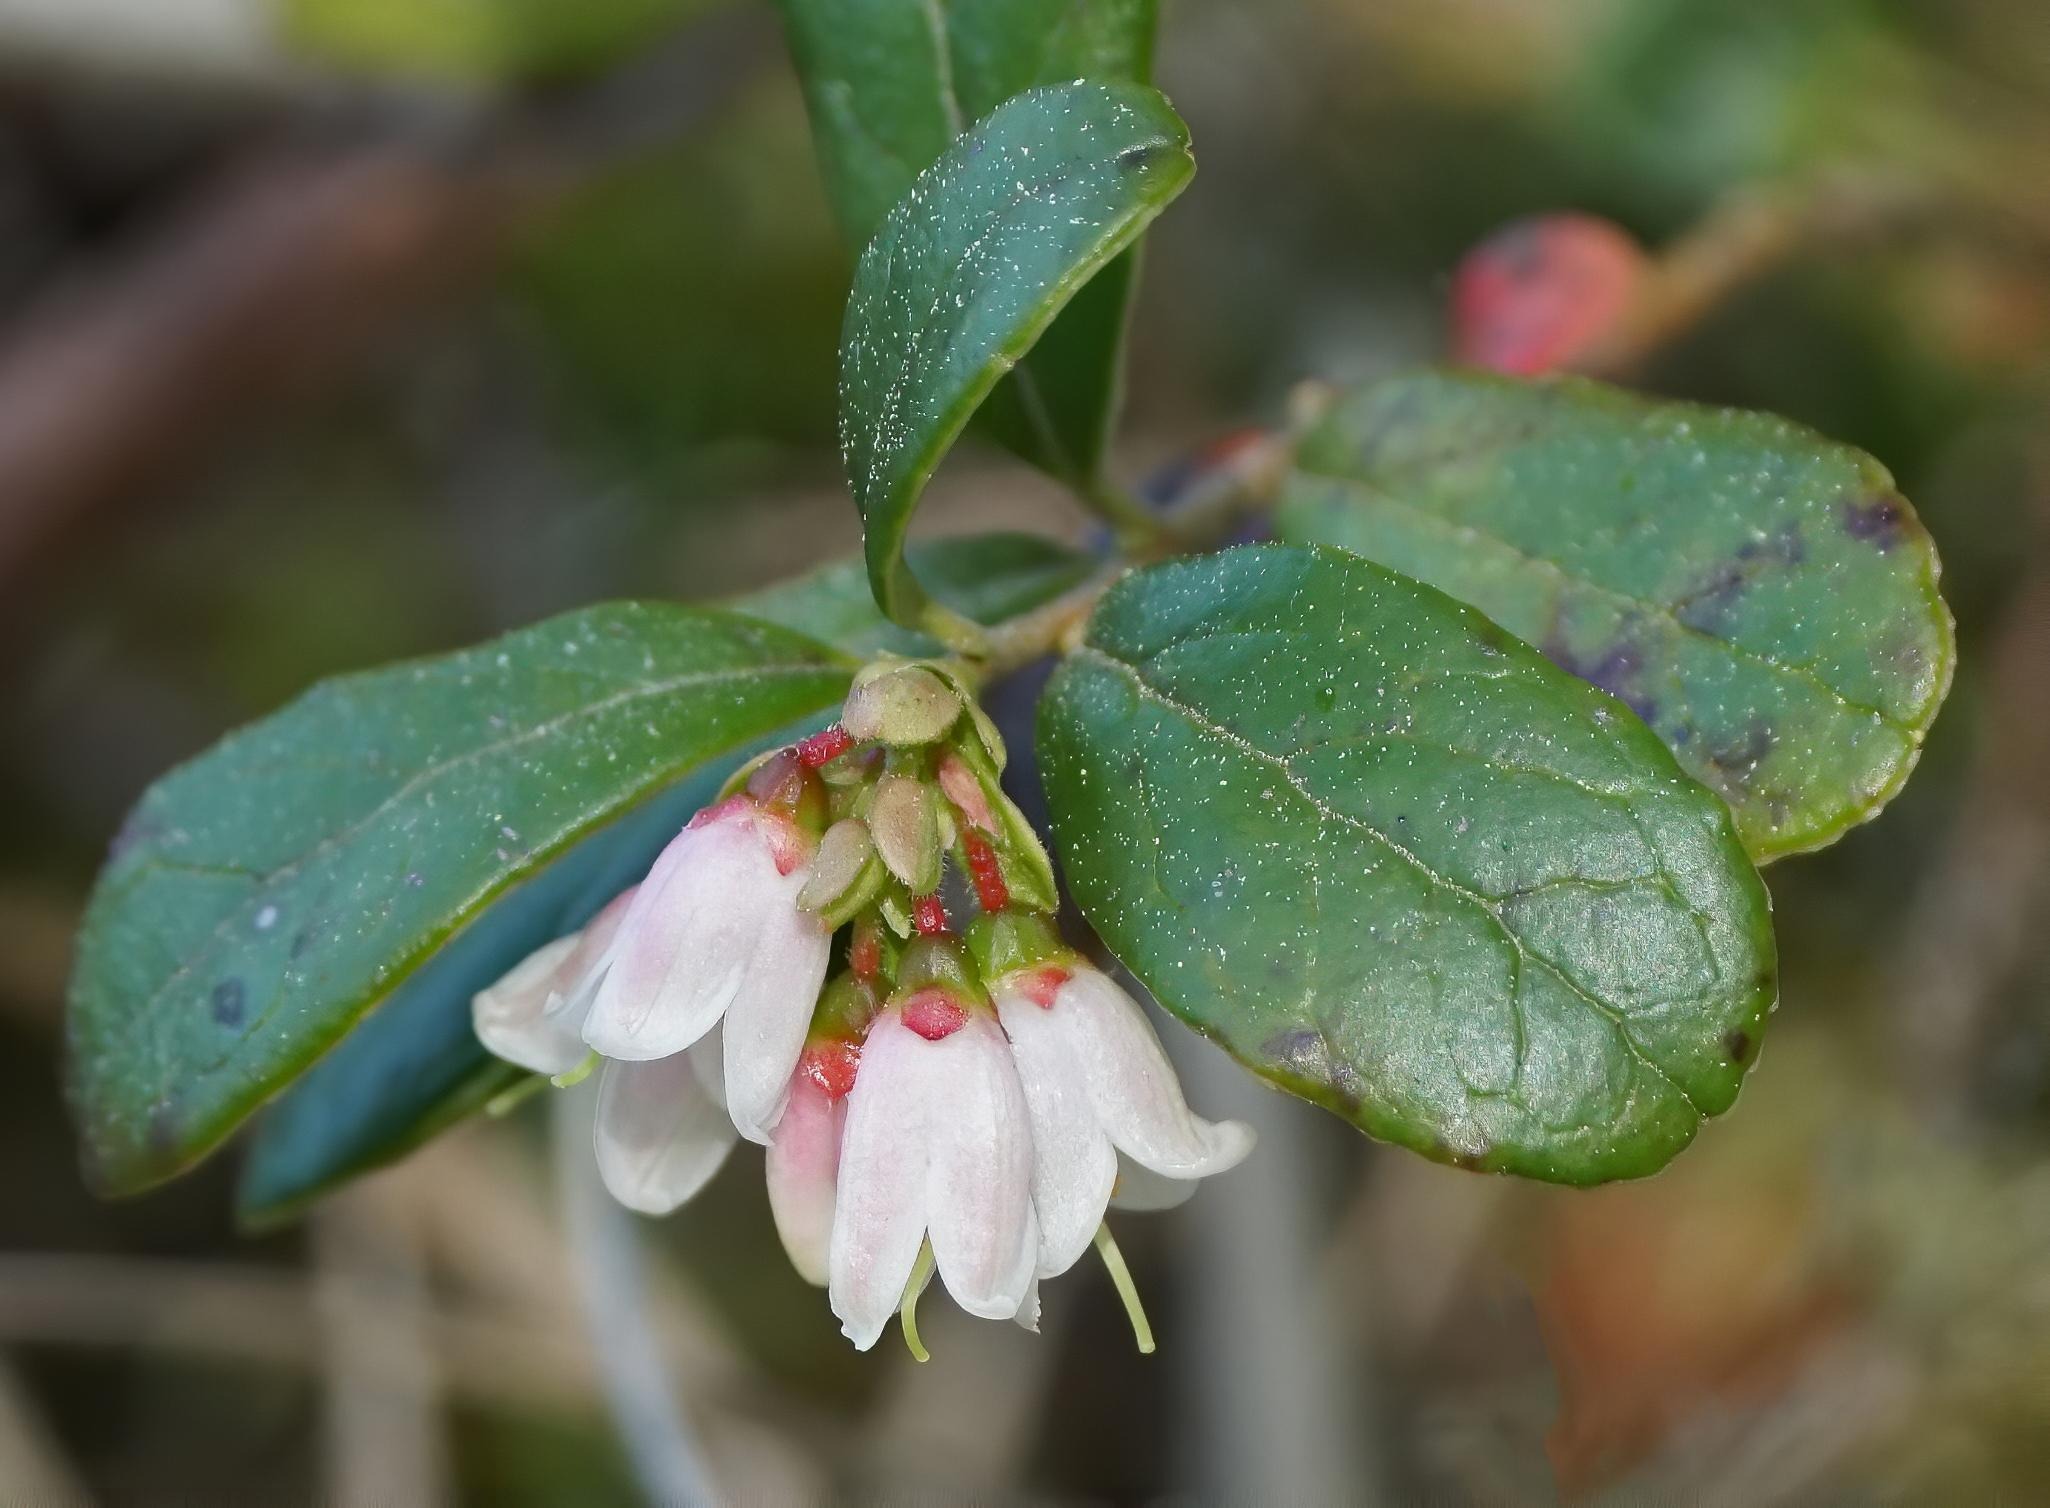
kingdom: Plantae
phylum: Tracheophyta
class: Magnoliopsida
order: Ericales
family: Ericaceae
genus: Vaccinium
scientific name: Vaccinium vitis-idaea
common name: Tyttebær
